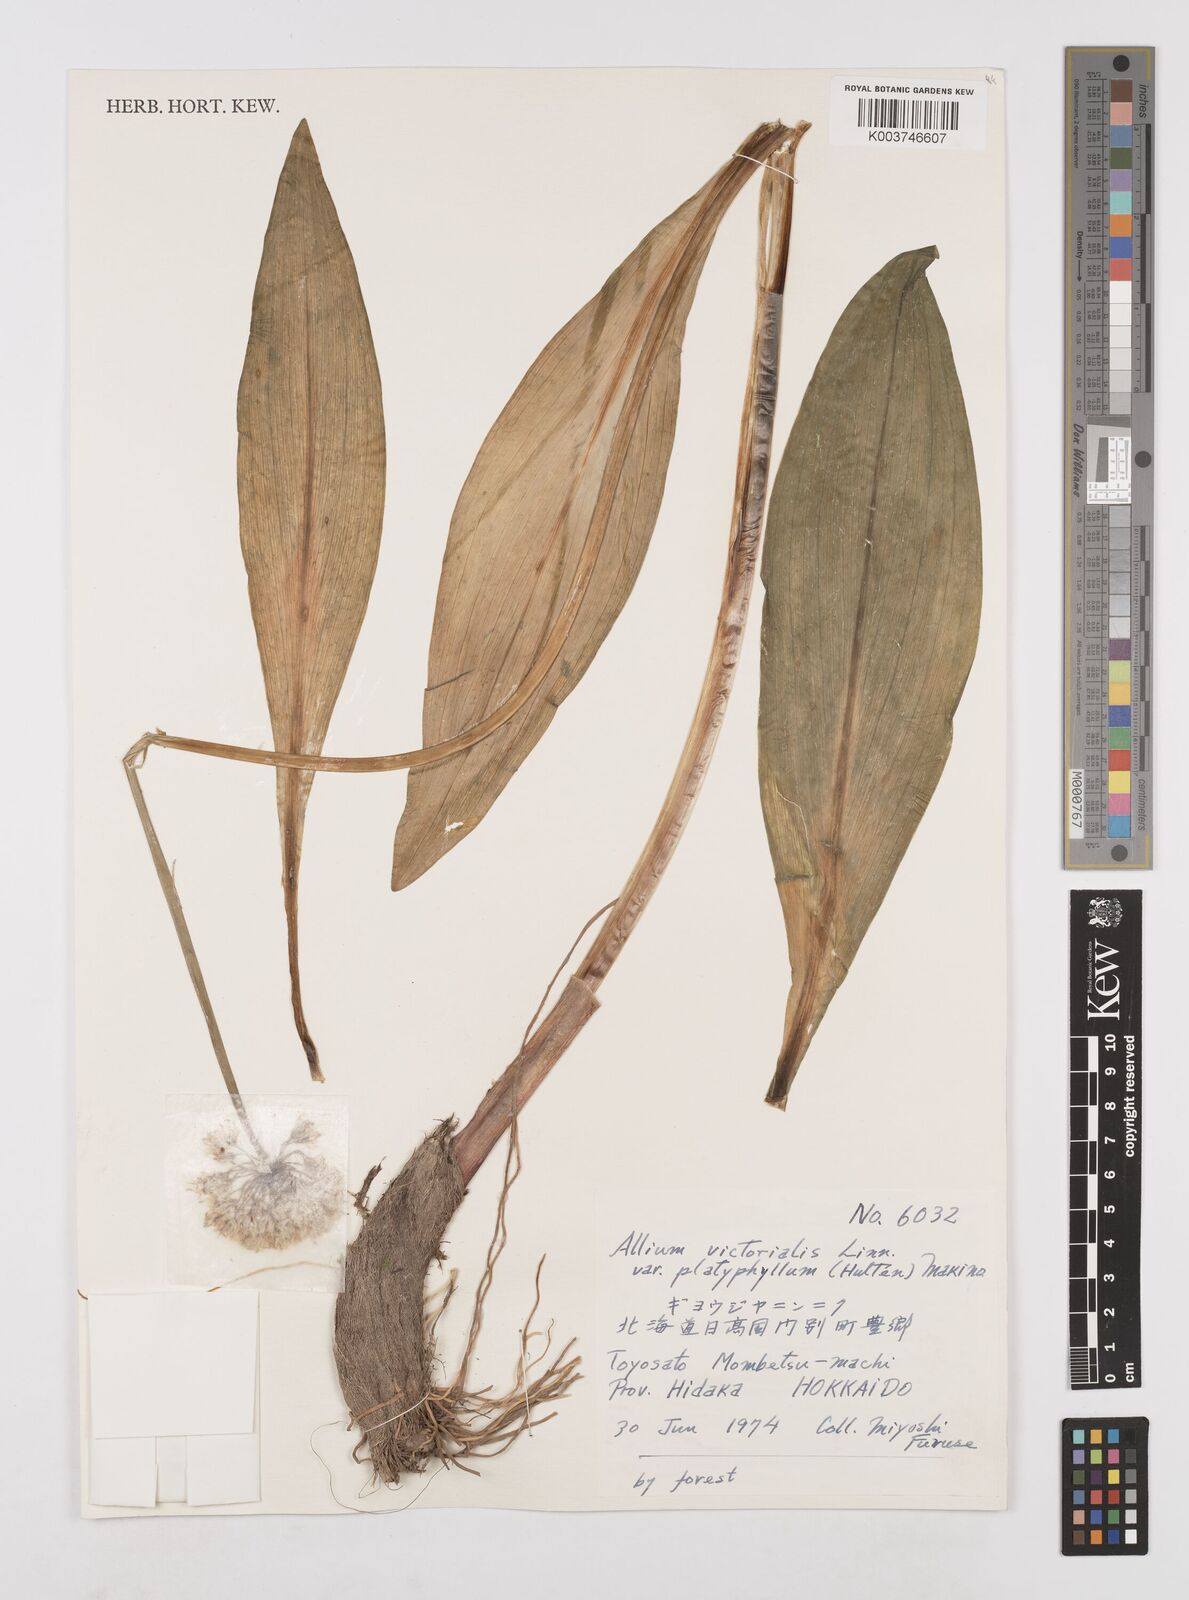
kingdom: Plantae
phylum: Tracheophyta
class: Liliopsida
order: Asparagales
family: Amaryllidaceae
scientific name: Amaryllidaceae
